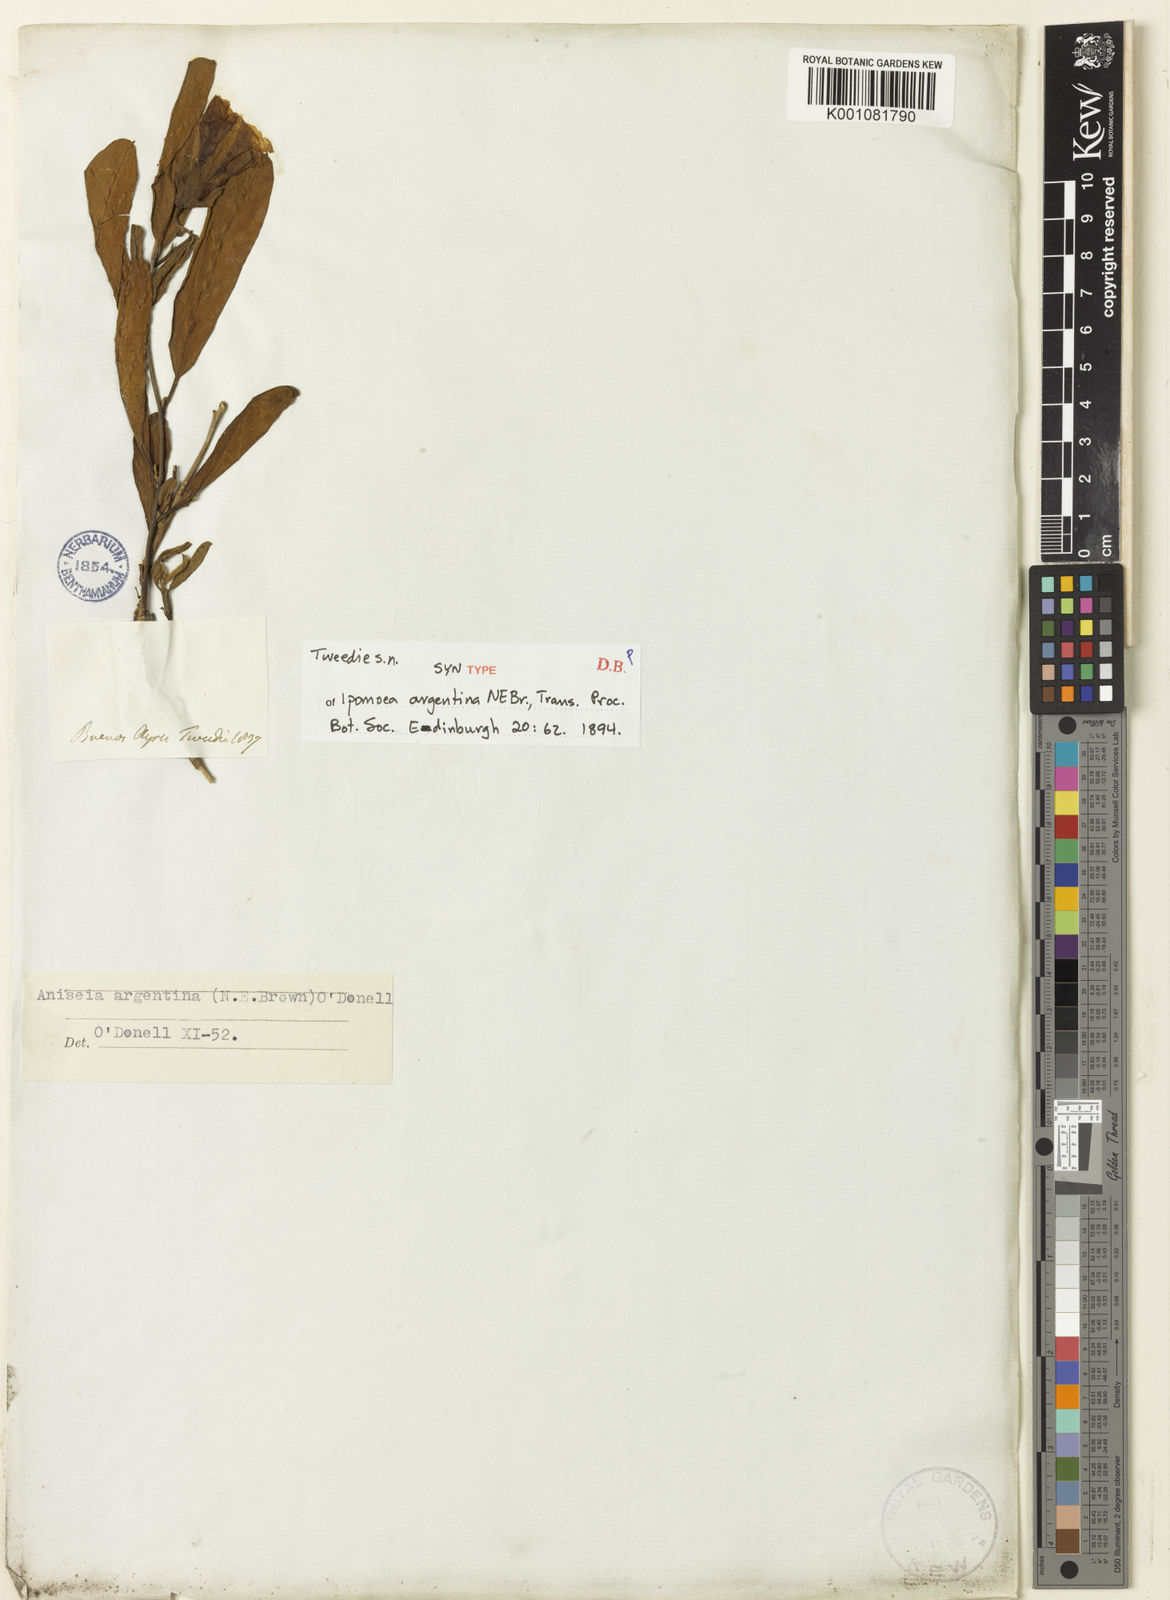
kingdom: Plantae
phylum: Tracheophyta
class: Magnoliopsida
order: Solanales
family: Convolvulaceae
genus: Aniseia
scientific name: Aniseia argentina
